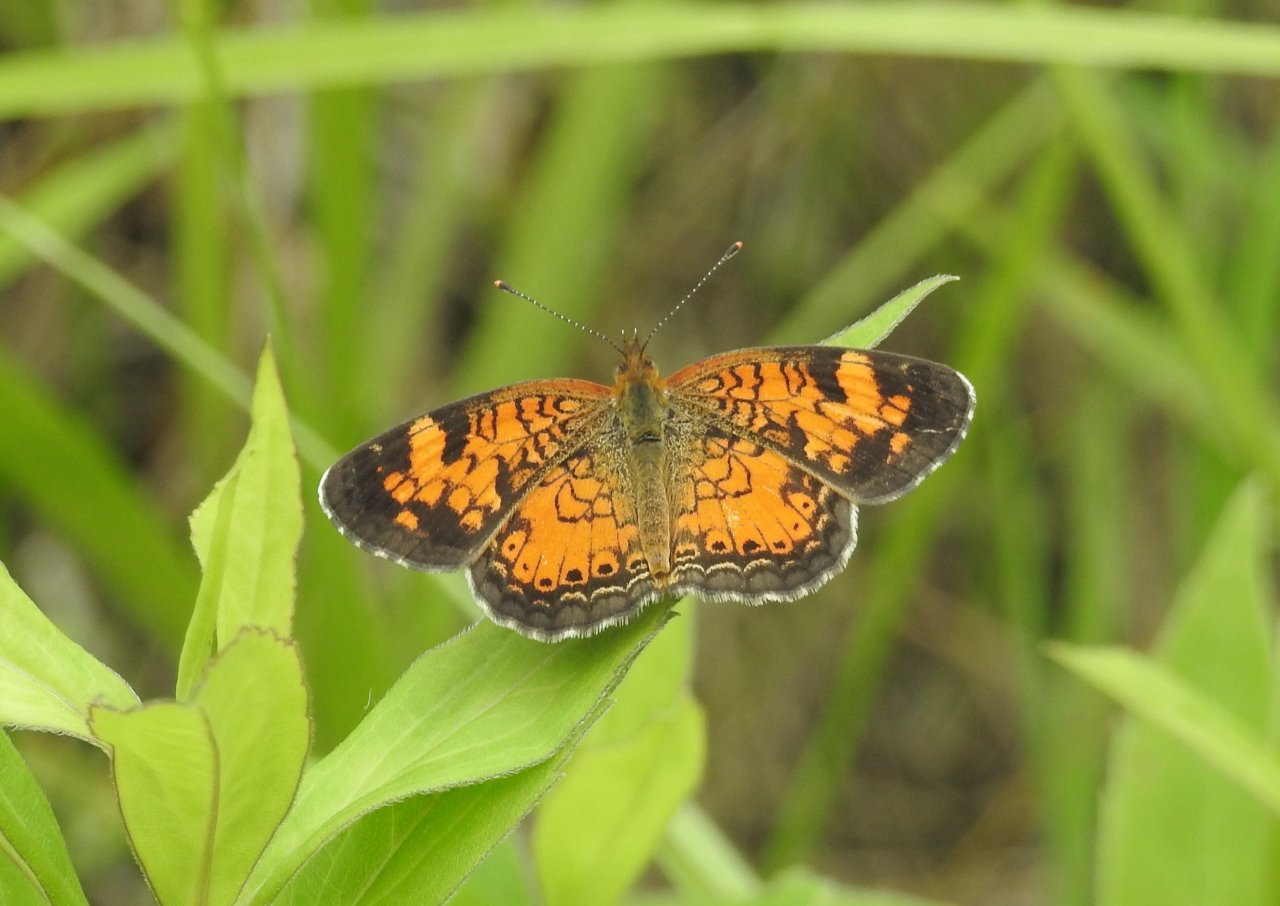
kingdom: Animalia
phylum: Arthropoda
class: Insecta
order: Lepidoptera
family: Nymphalidae
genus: Phyciodes
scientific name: Phyciodes
